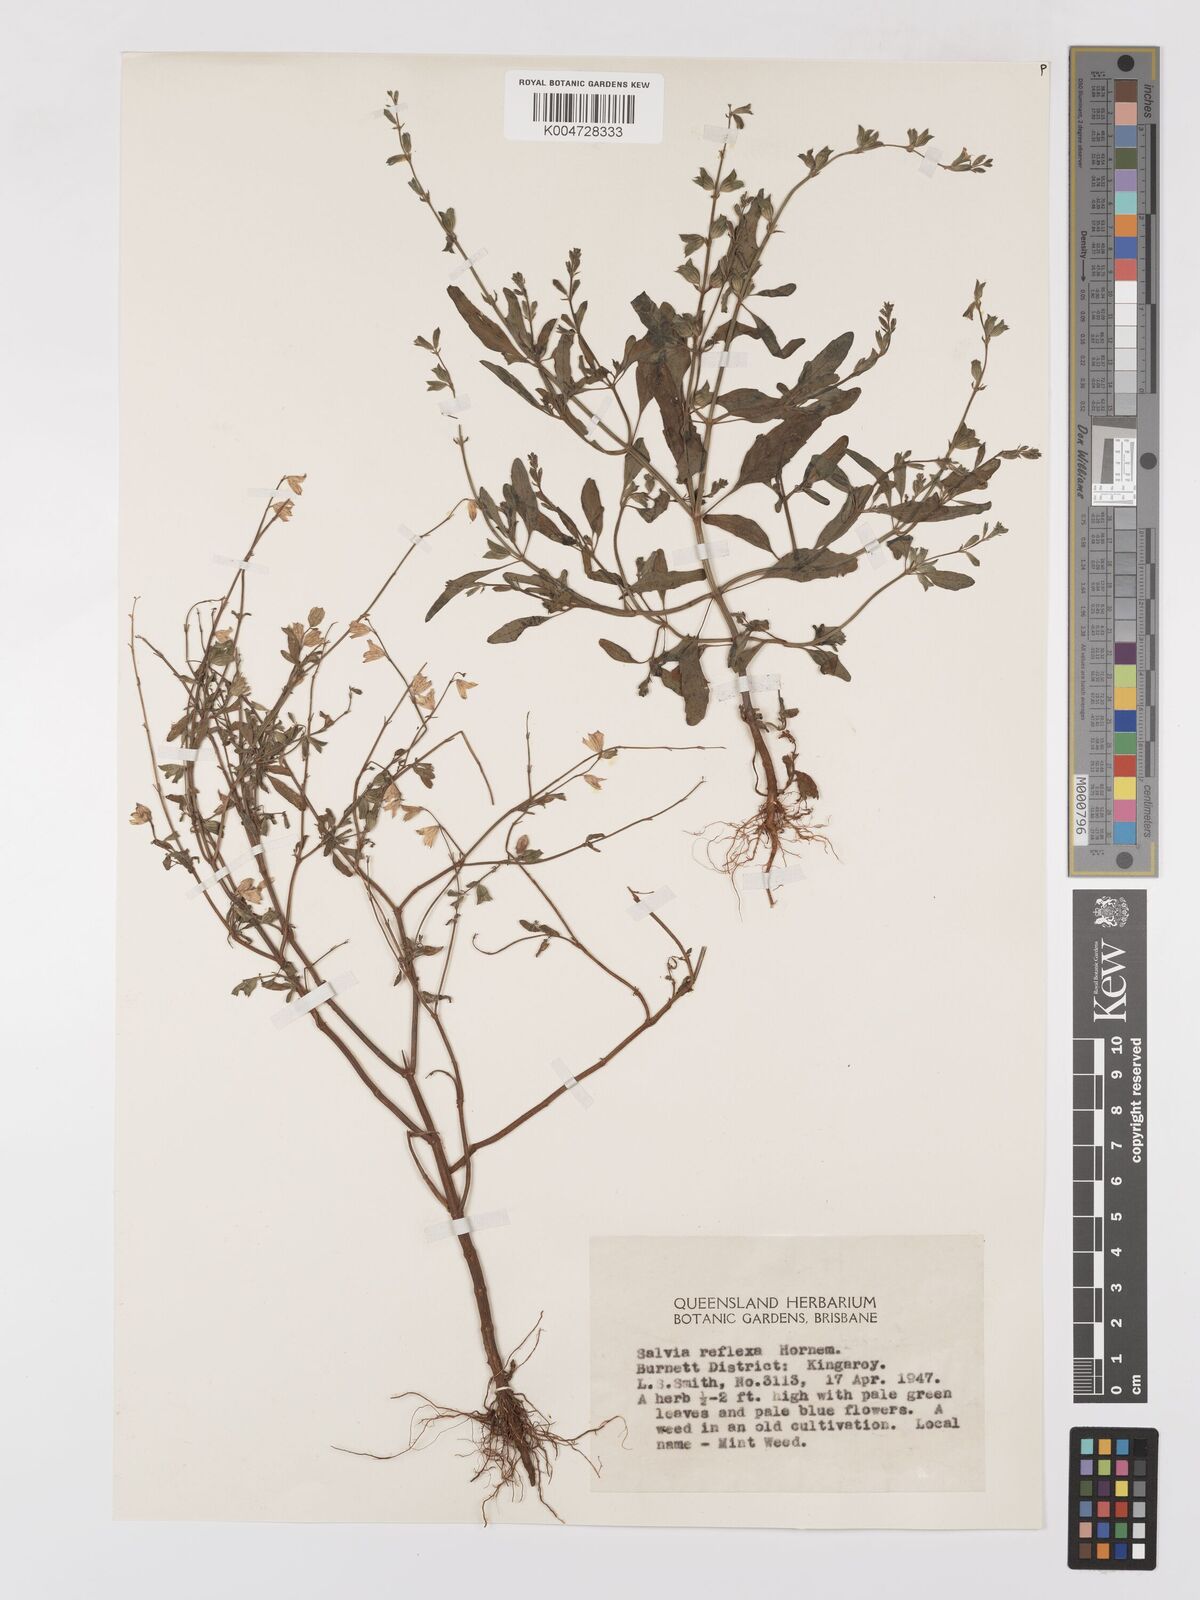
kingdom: Plantae
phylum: Tracheophyta
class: Magnoliopsida
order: Lamiales
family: Lamiaceae
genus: Salvia
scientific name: Salvia reflexa
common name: Mintweed
